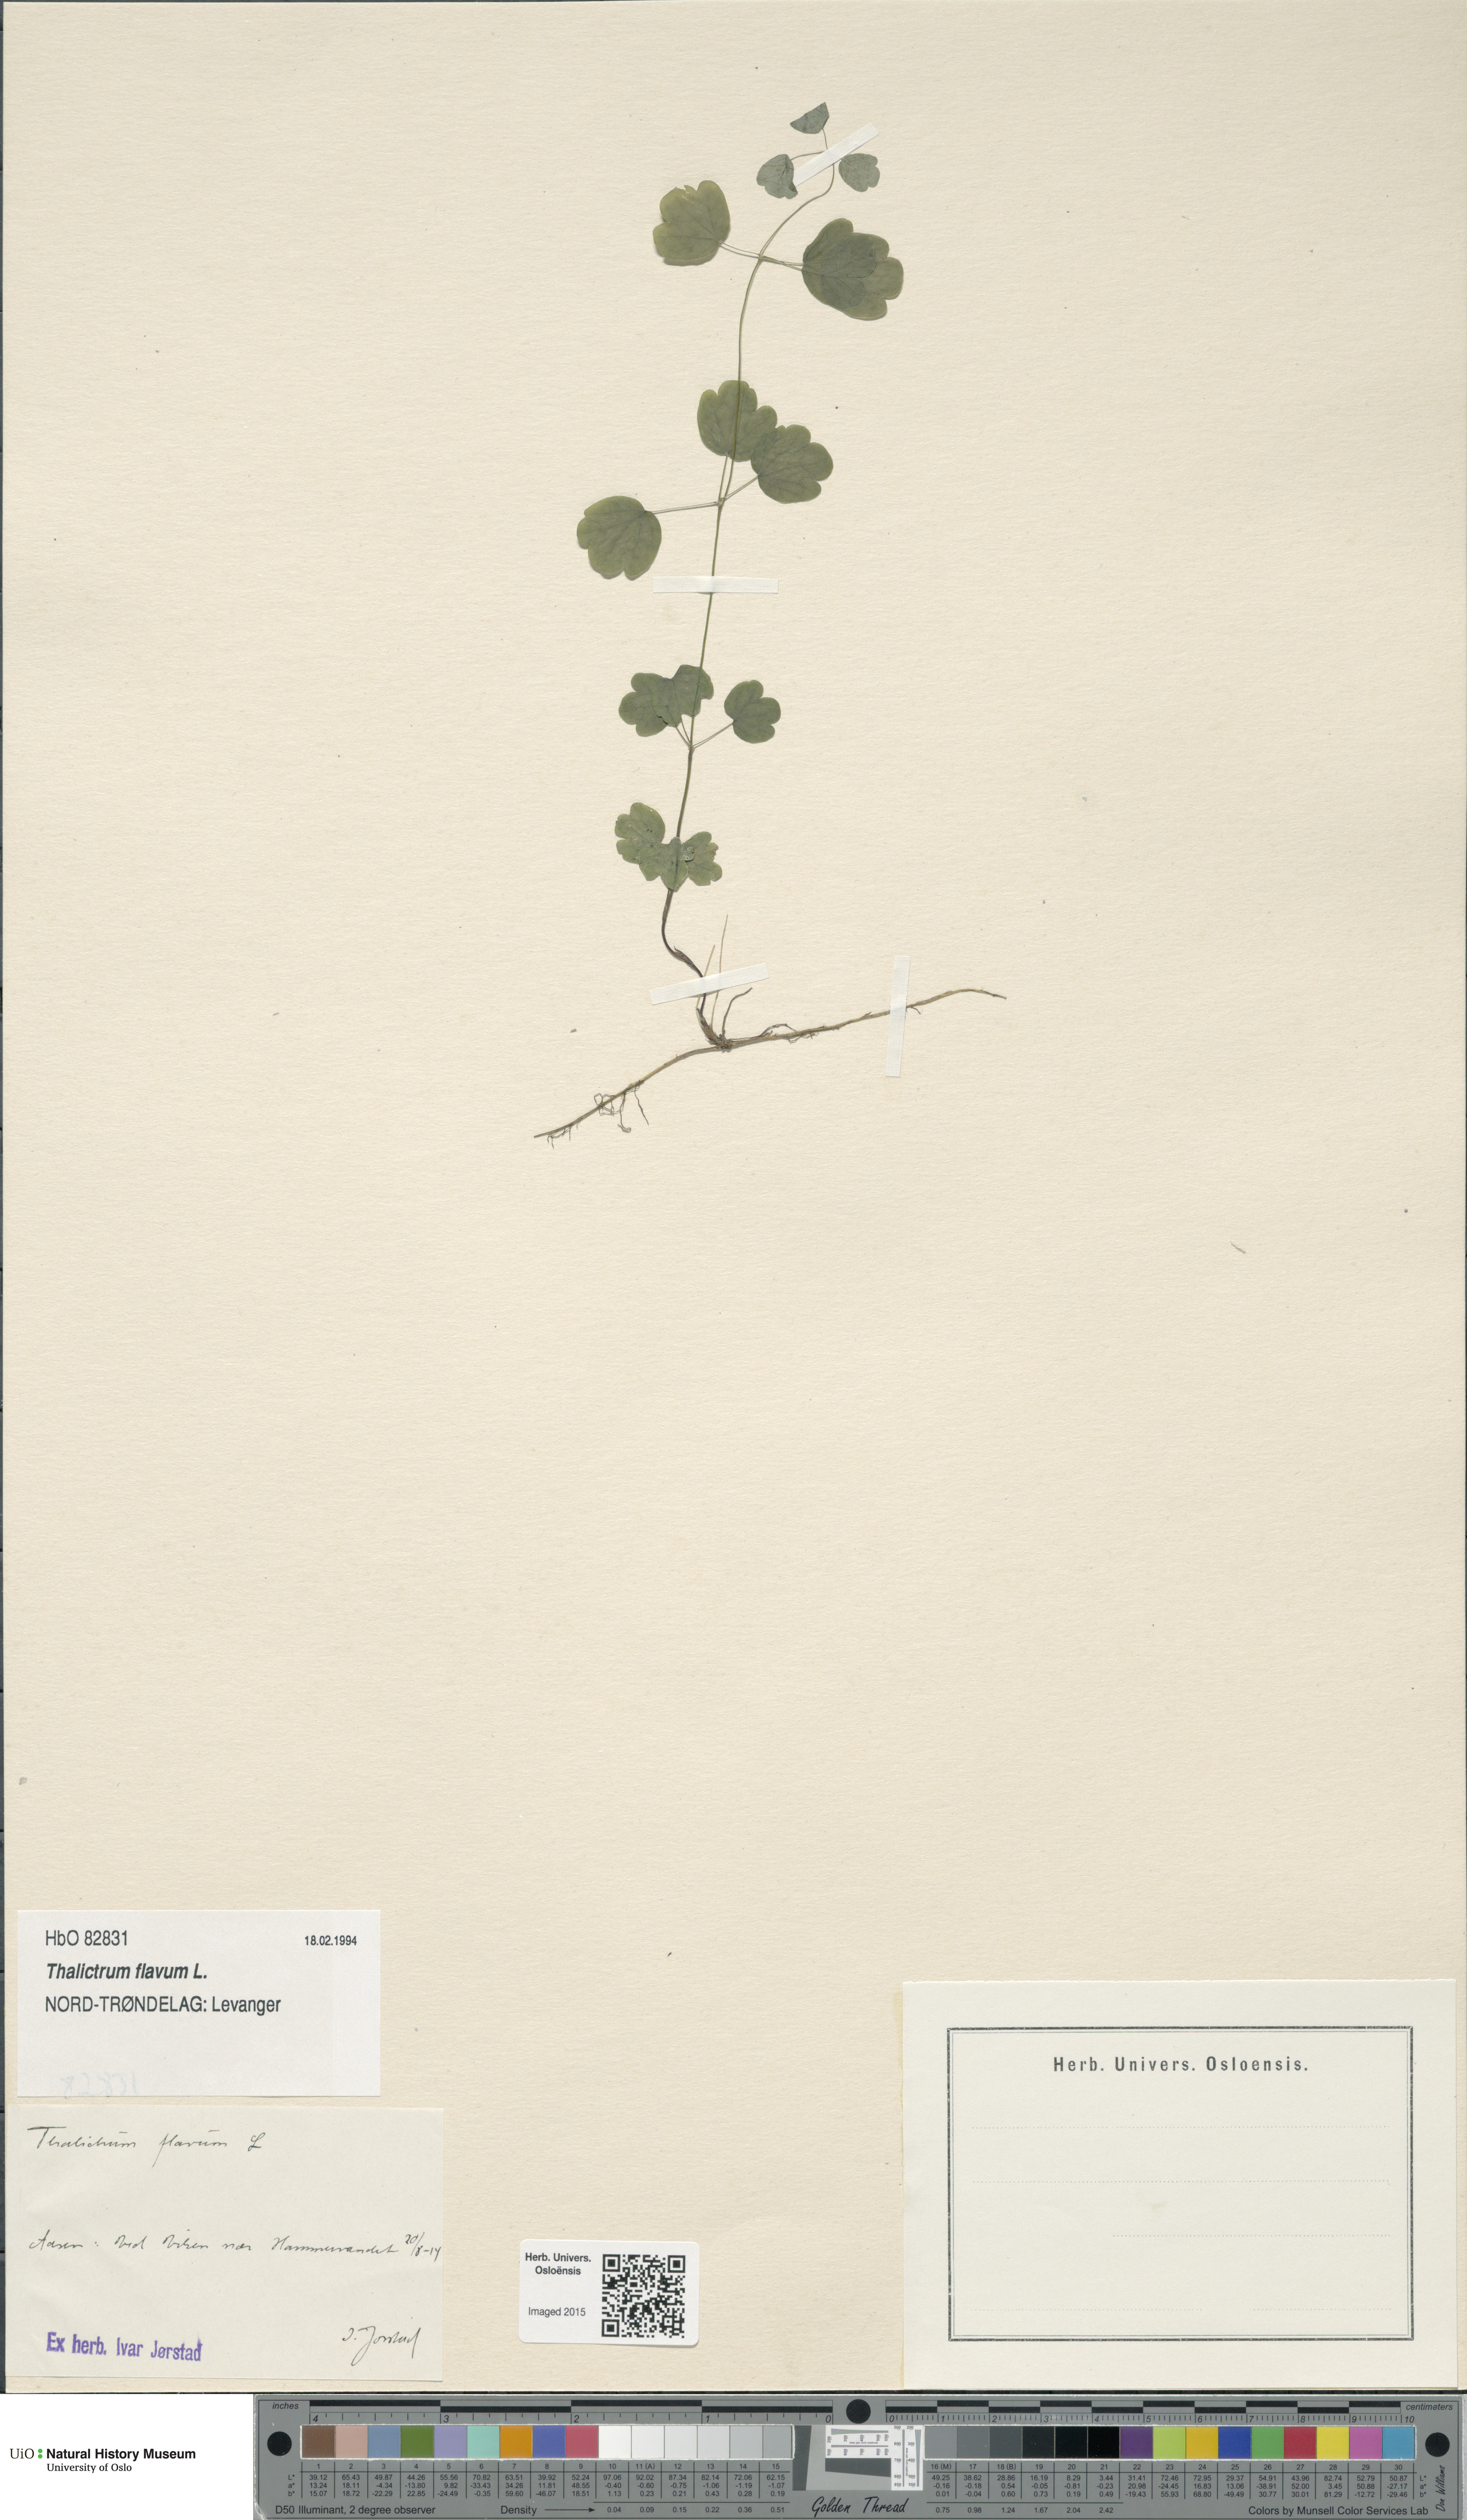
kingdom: Plantae
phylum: Tracheophyta
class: Magnoliopsida
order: Ranunculales
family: Ranunculaceae
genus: Thalictrum
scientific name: Thalictrum flavum
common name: Common meadow-rue
